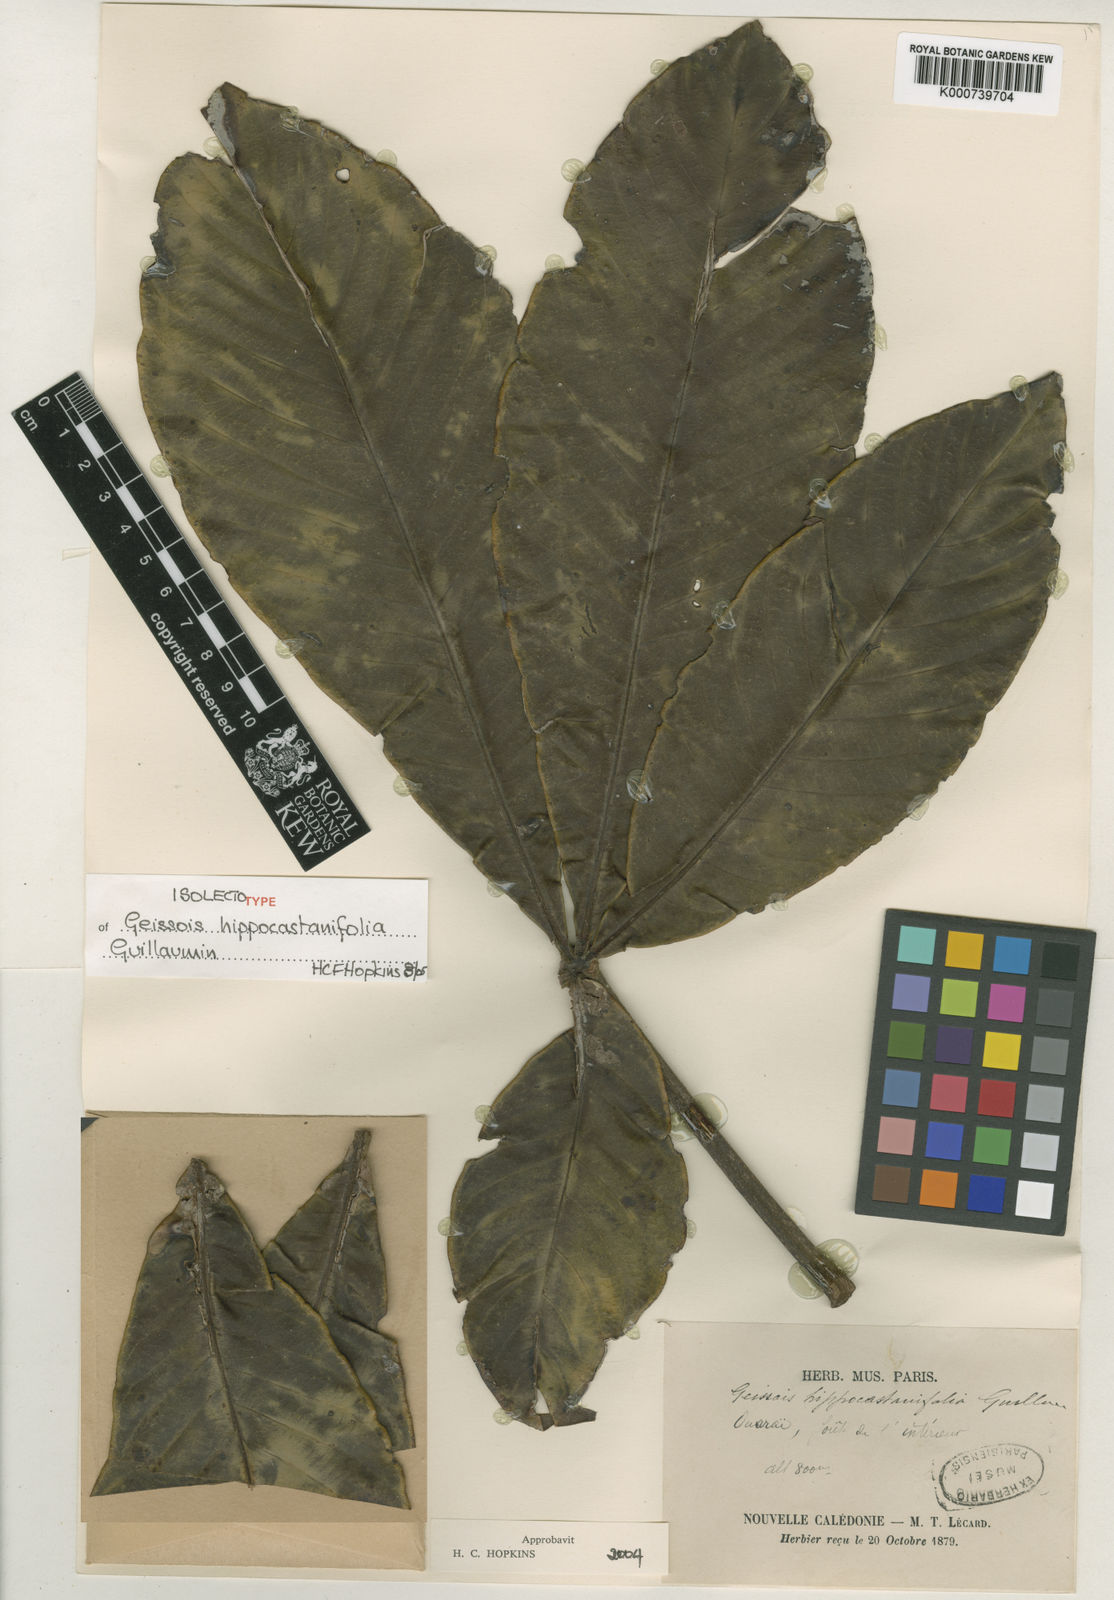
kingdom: Plantae
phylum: Tracheophyta
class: Magnoliopsida
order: Oxalidales
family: Cunoniaceae
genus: Geissois
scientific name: Geissois hippocastanifolia
